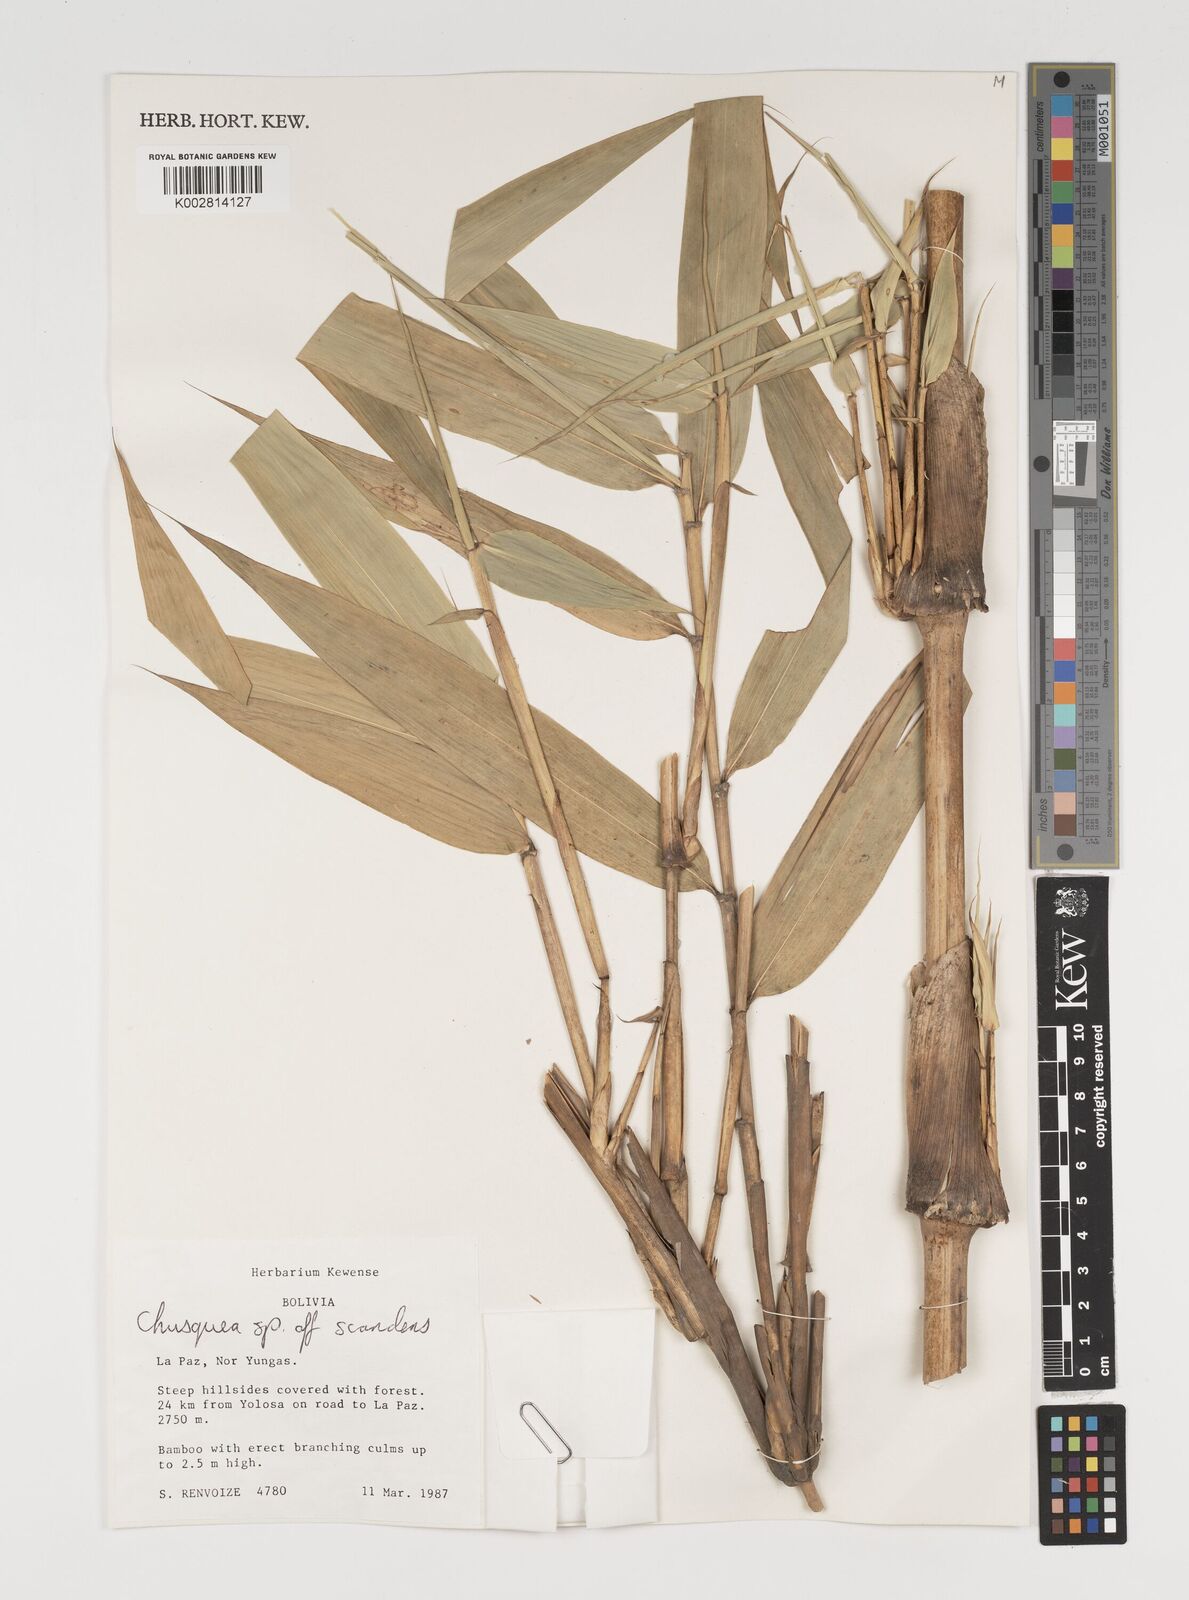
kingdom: Plantae
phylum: Tracheophyta
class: Liliopsida
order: Poales
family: Poaceae
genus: Chusquea
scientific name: Chusquea
